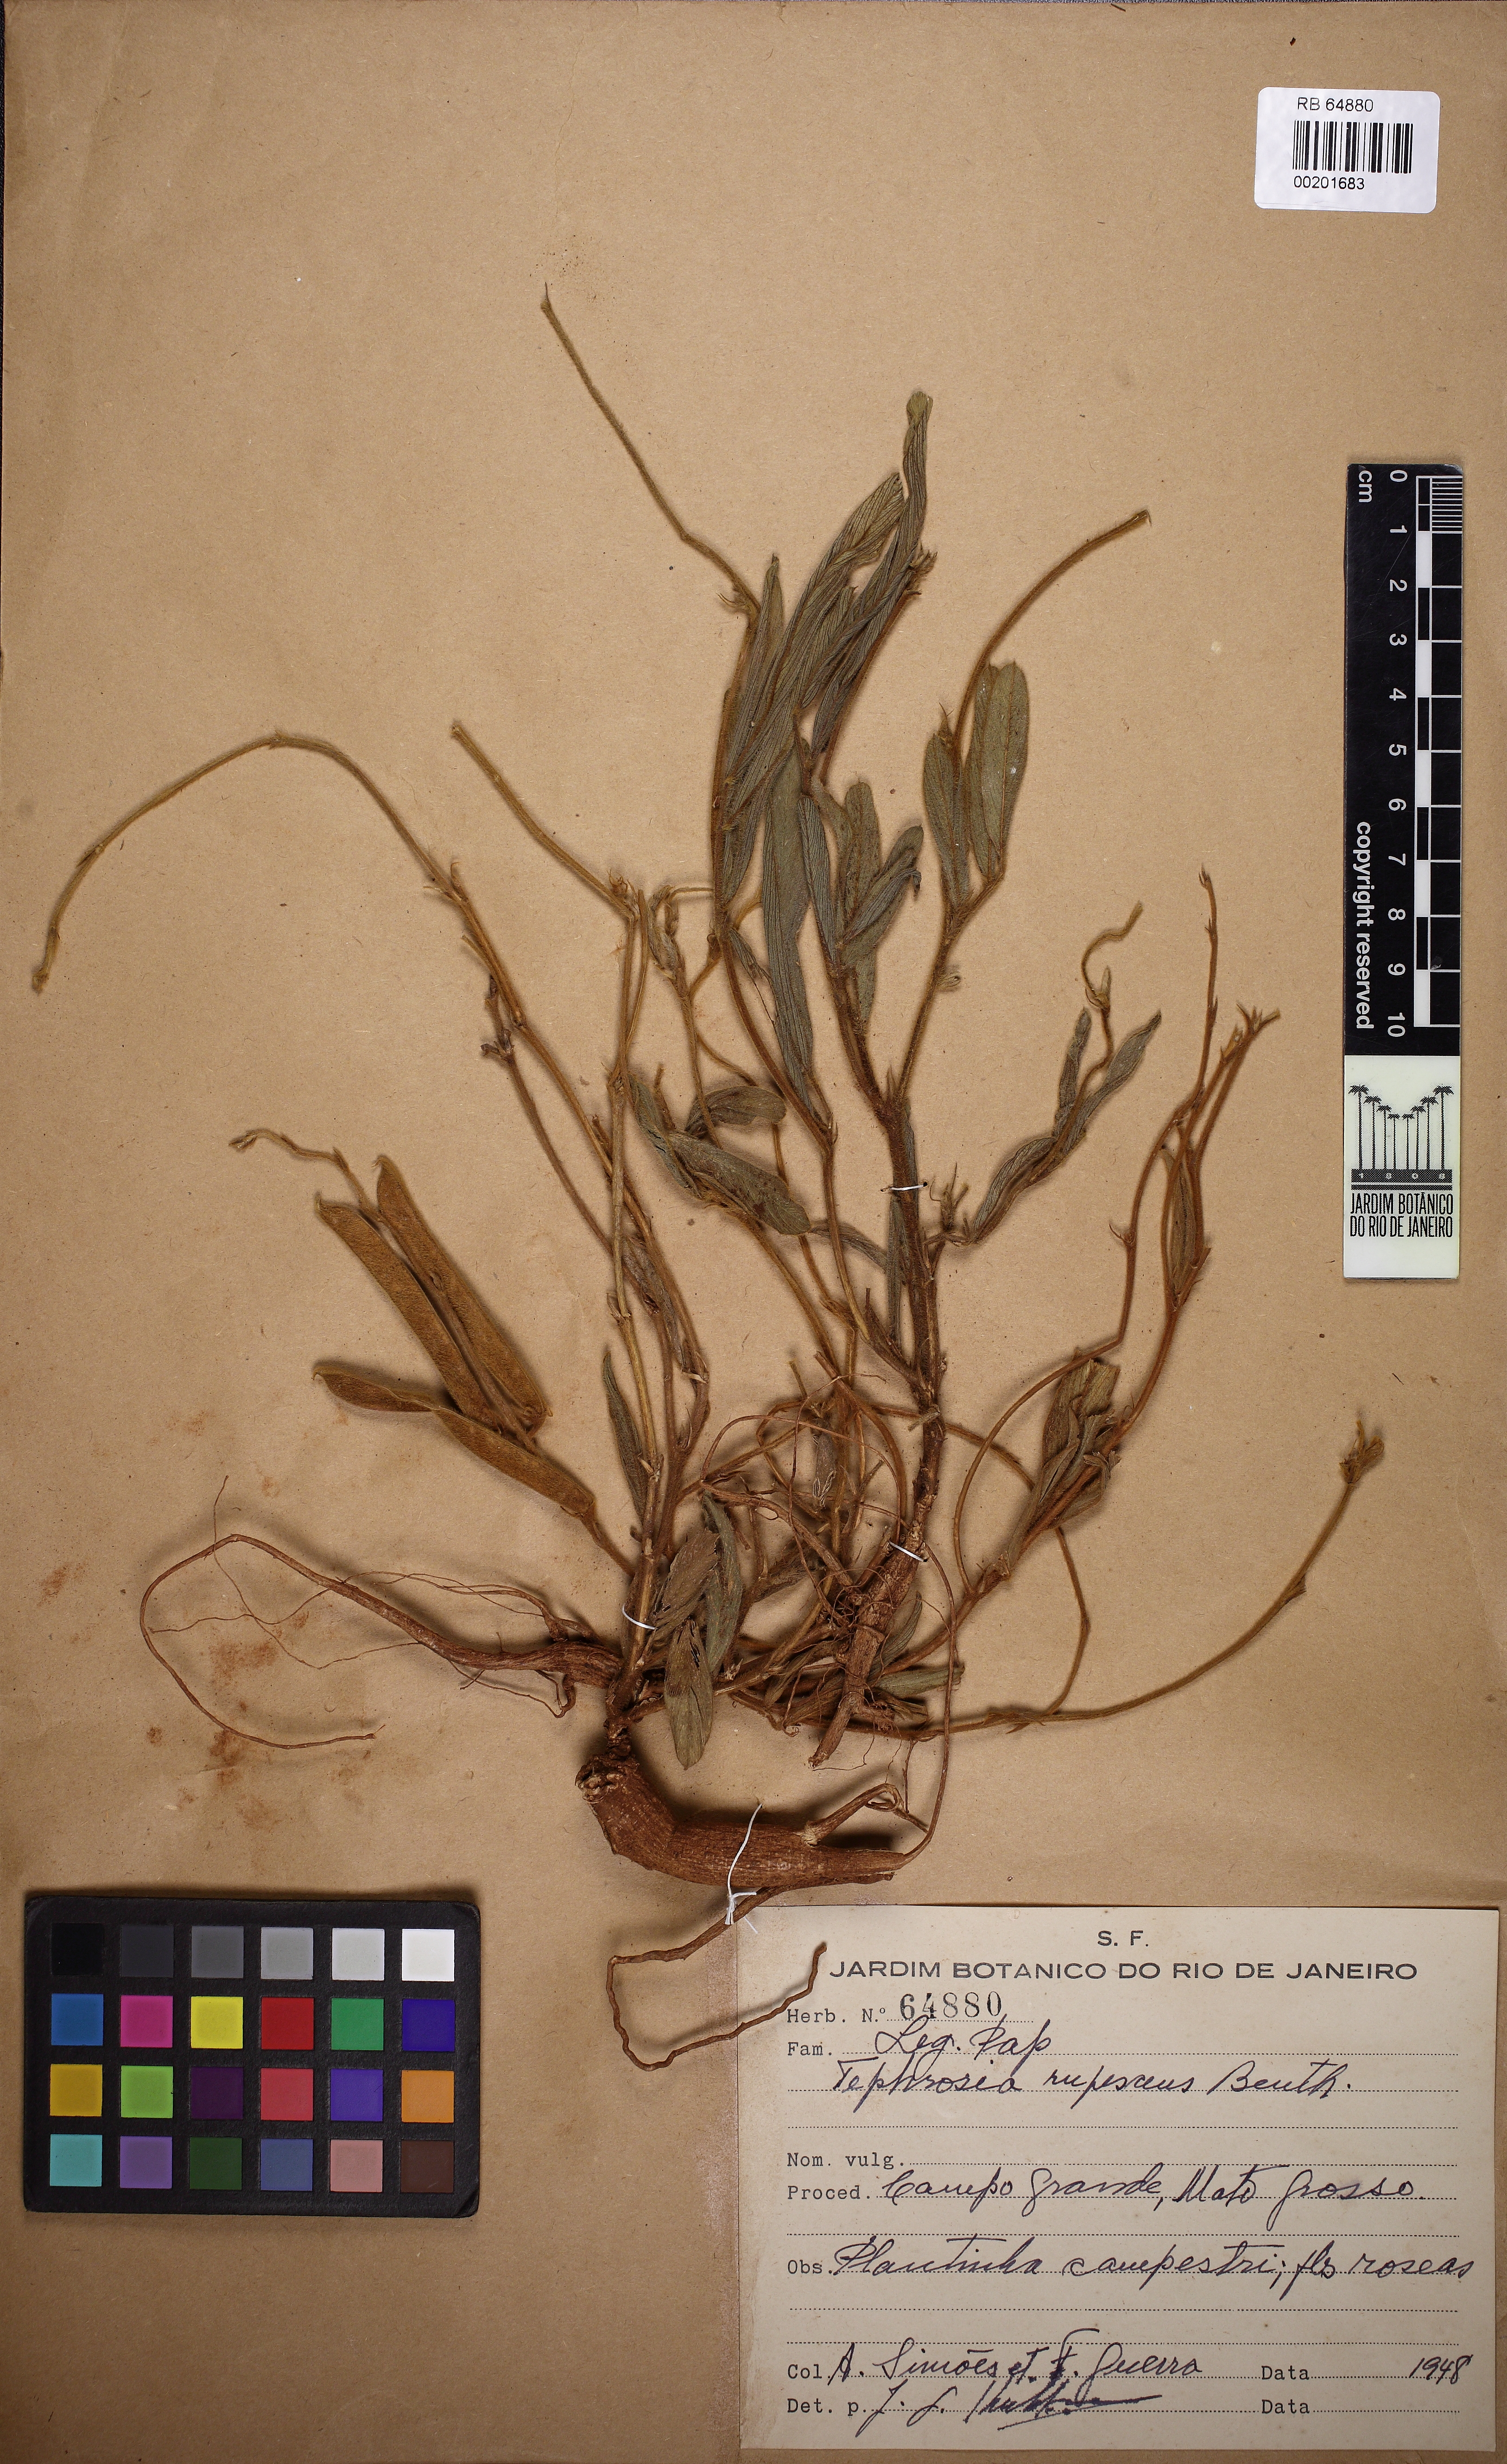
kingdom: Plantae
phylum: Tracheophyta
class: Magnoliopsida
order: Fabales
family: Fabaceae
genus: Tephrosia
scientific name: Tephrosia adunca
